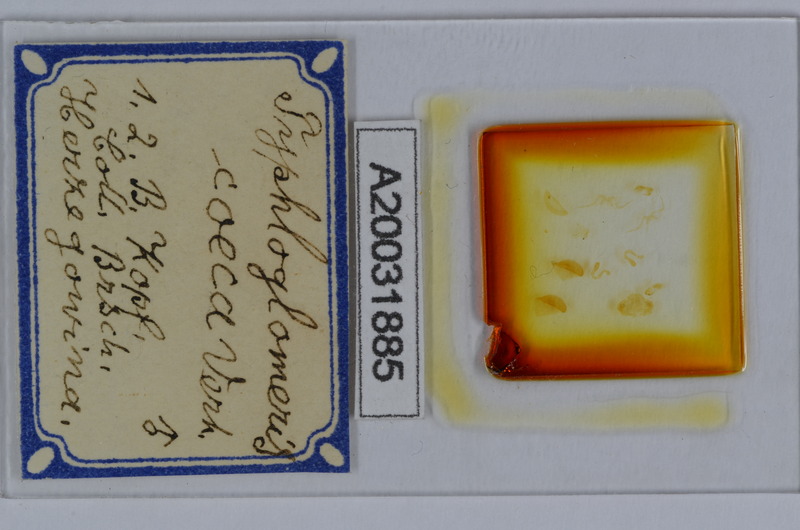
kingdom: Animalia
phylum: Arthropoda
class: Diplopoda
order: Glomerida
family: Glomeridellidae
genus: Typhloglomeris
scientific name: Typhloglomeris coeca
